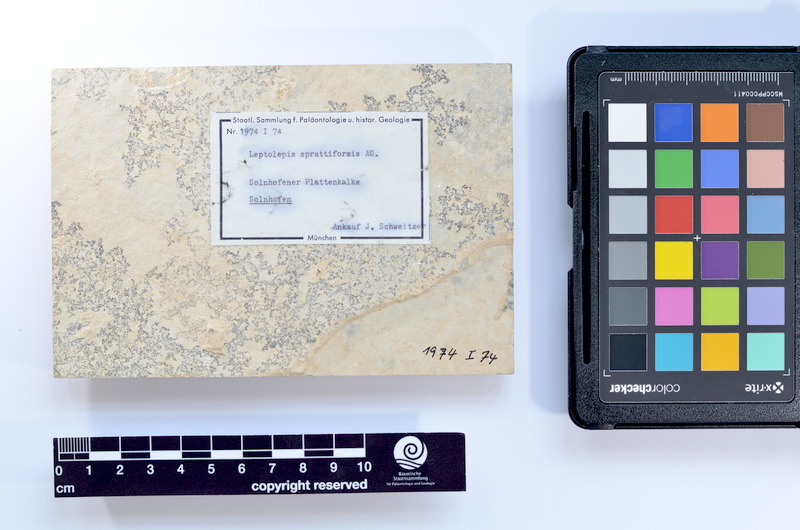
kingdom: Animalia
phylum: Chordata
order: Salmoniformes
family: Orthogonikleithridae
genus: Leptolepides
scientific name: Leptolepides sprattiformis
